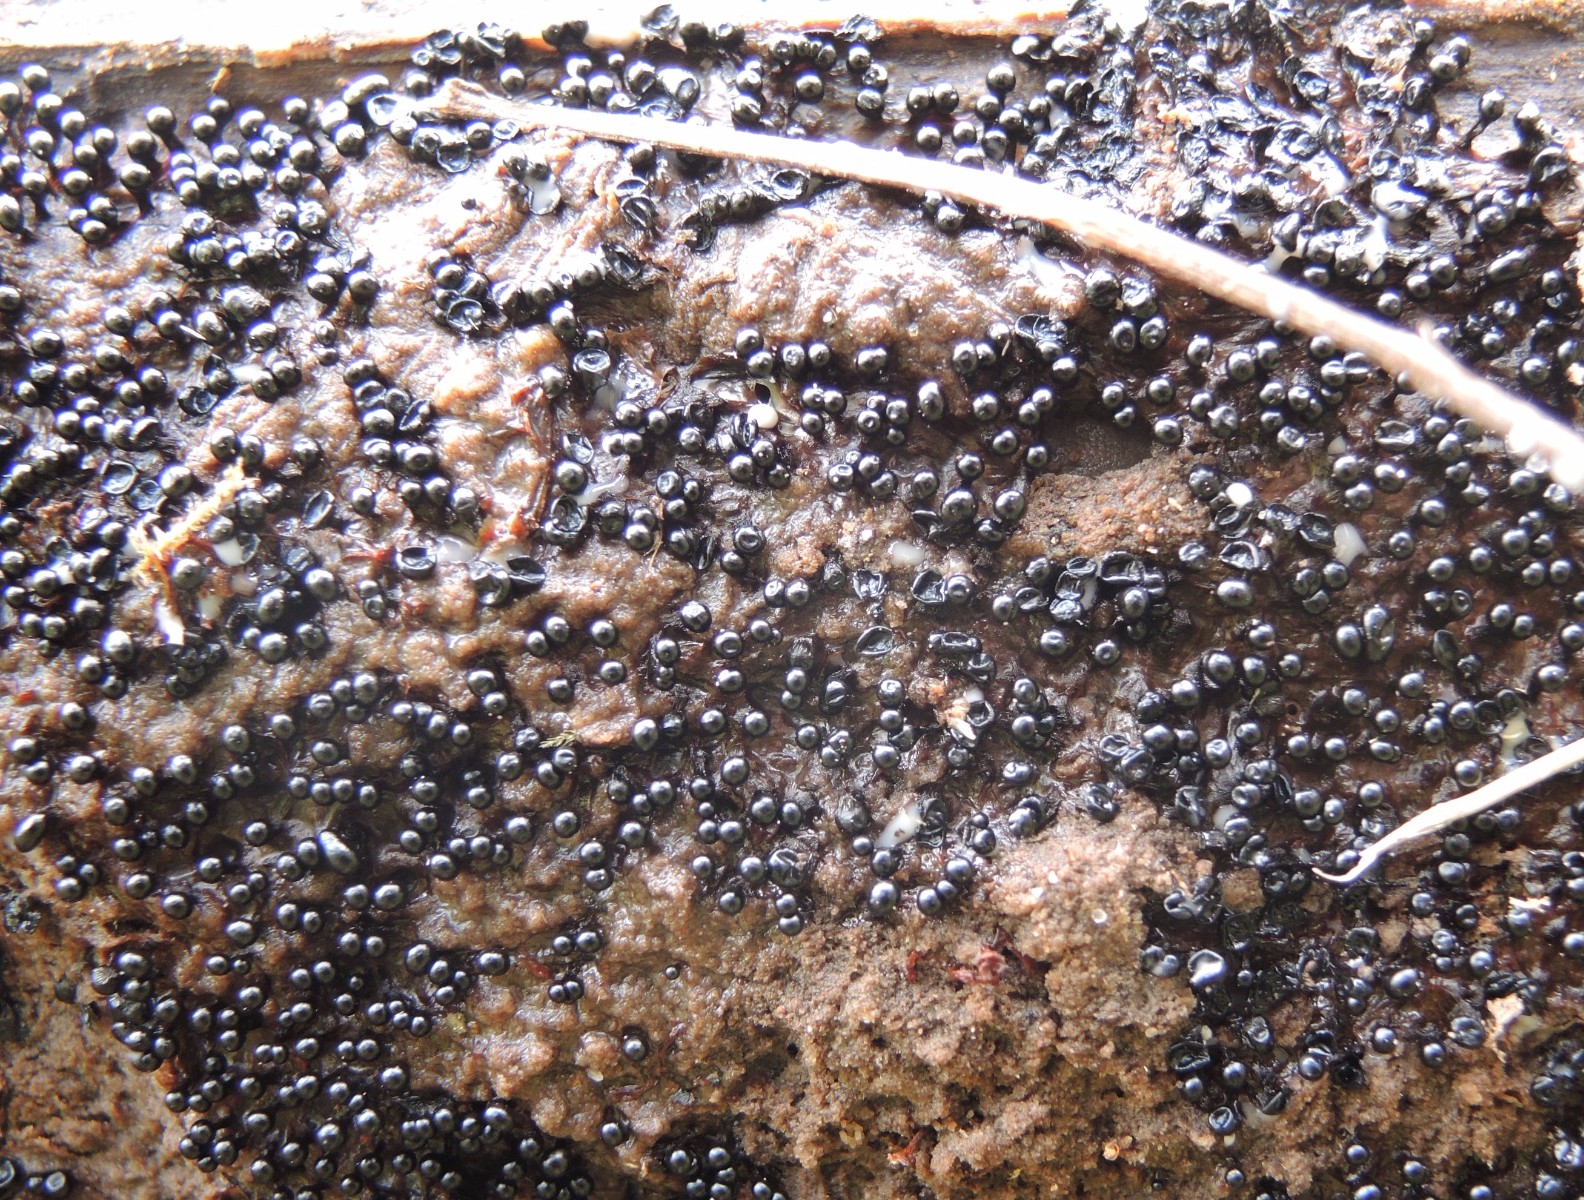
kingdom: Protozoa
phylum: Mycetozoa
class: Myxomycetes
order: Trichiales
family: Trichiaceae
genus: Metatrichia
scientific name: Metatrichia floriformis
